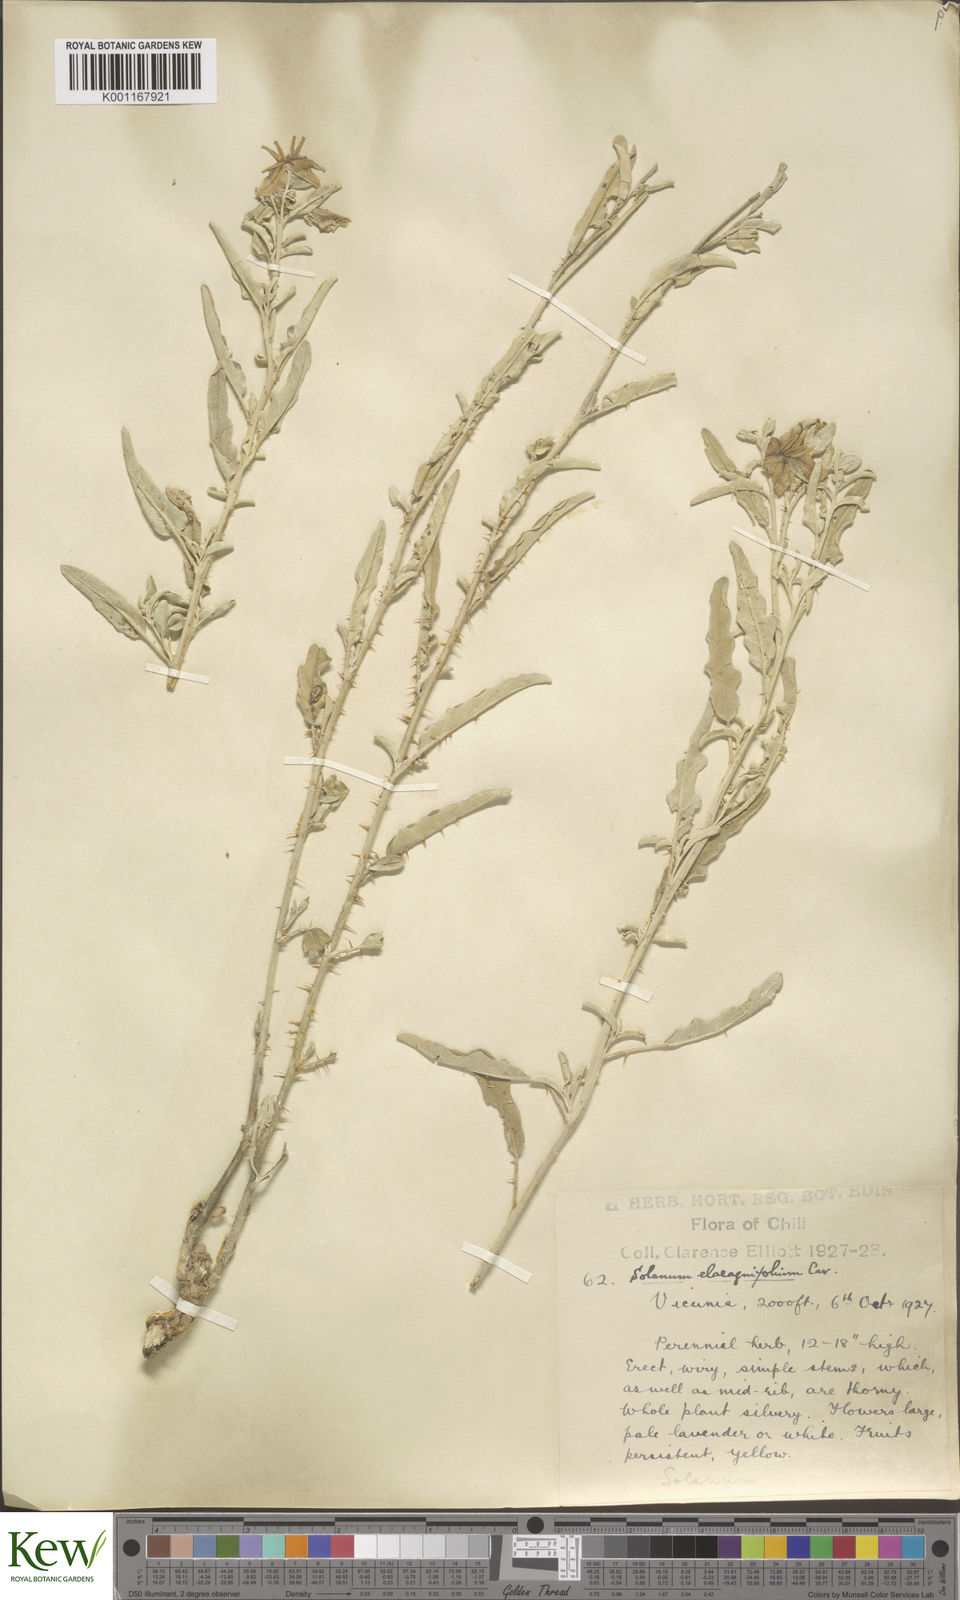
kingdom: Plantae
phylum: Tracheophyta
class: Magnoliopsida
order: Solanales
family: Solanaceae
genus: Solanum
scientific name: Solanum elaeagnifolium
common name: Silverleaf nightshade
